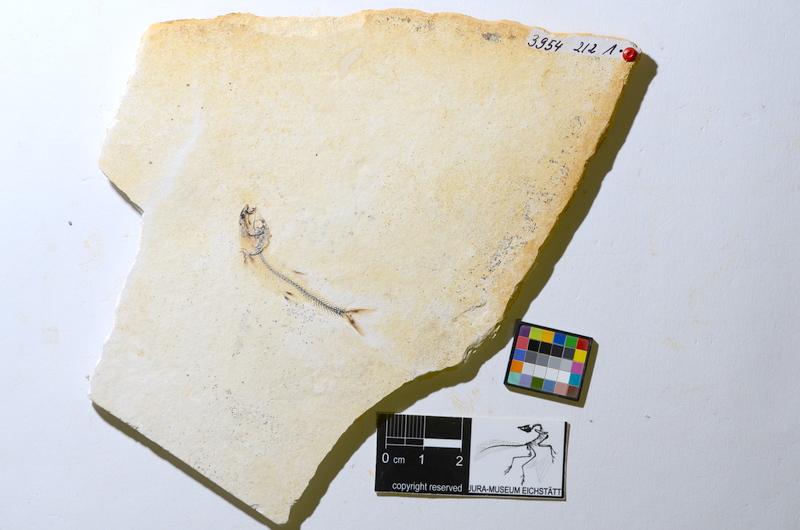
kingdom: Animalia
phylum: Chordata
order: Salmoniformes
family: Orthogonikleithridae
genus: Orthogonikleithrus
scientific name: Orthogonikleithrus hoelli
